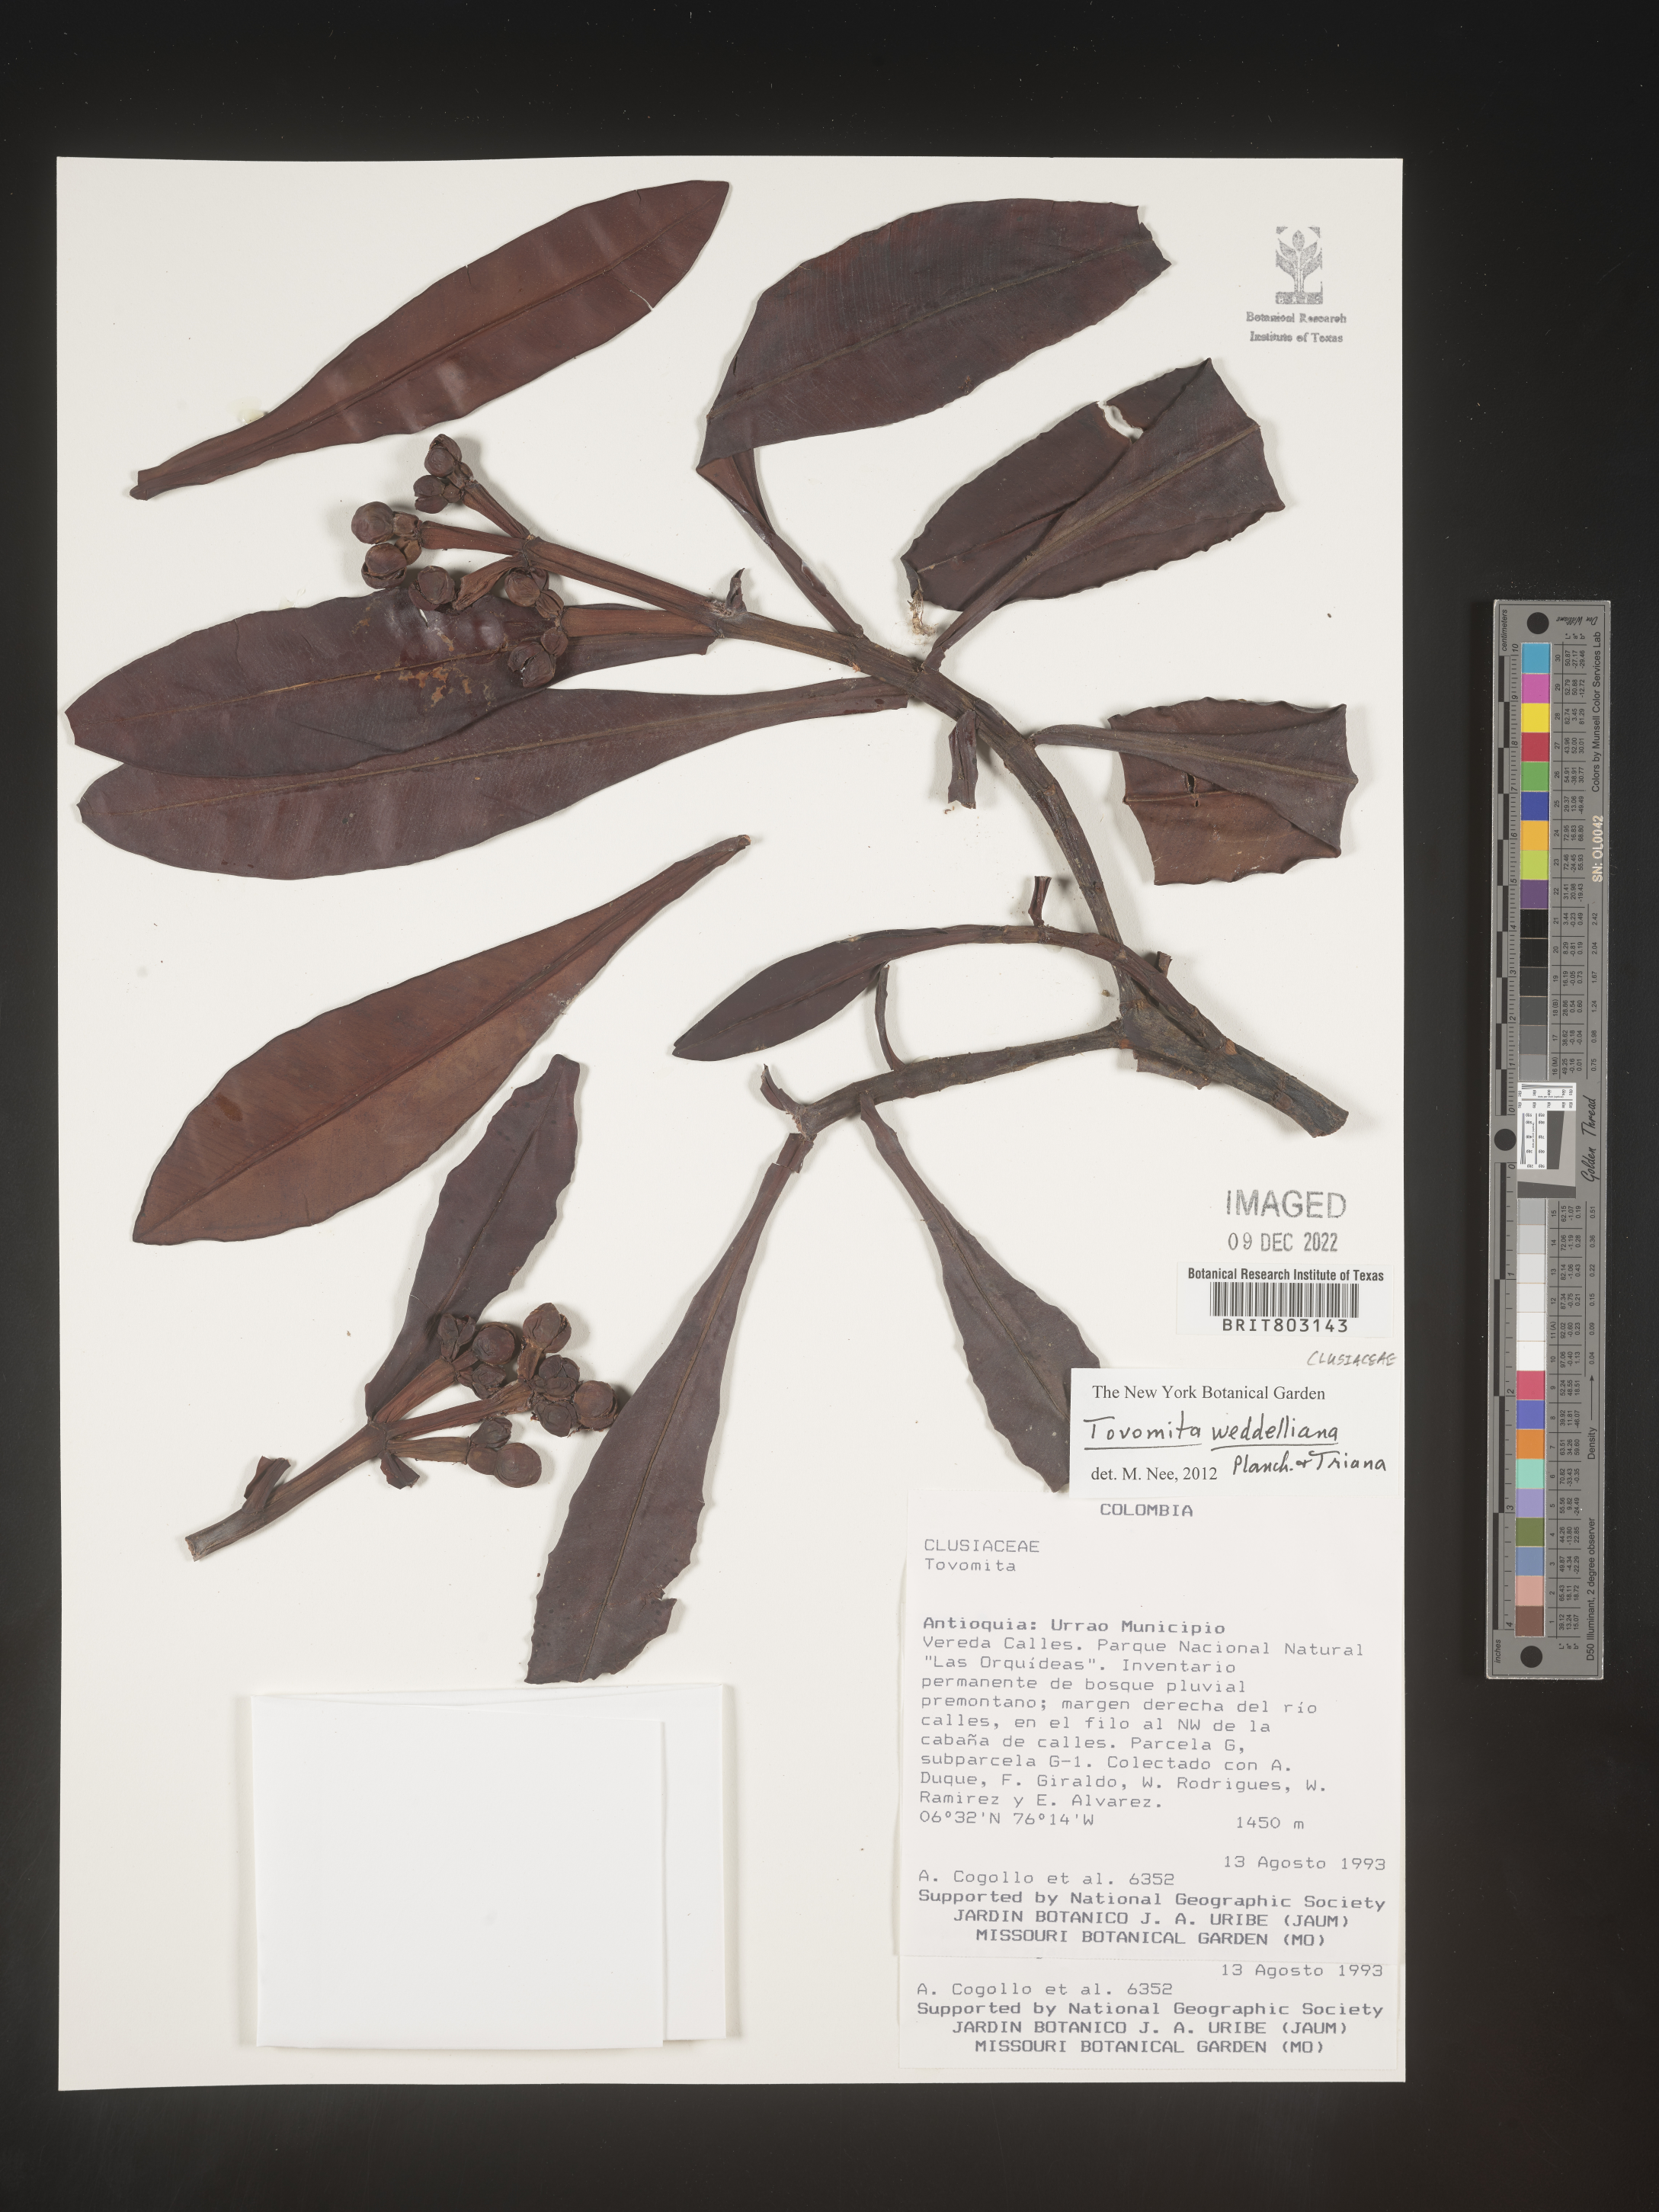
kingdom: Plantae
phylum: Tracheophyta
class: Magnoliopsida
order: Malpighiales
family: Clusiaceae
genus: Arawakia
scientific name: Arawakia weddelliana
